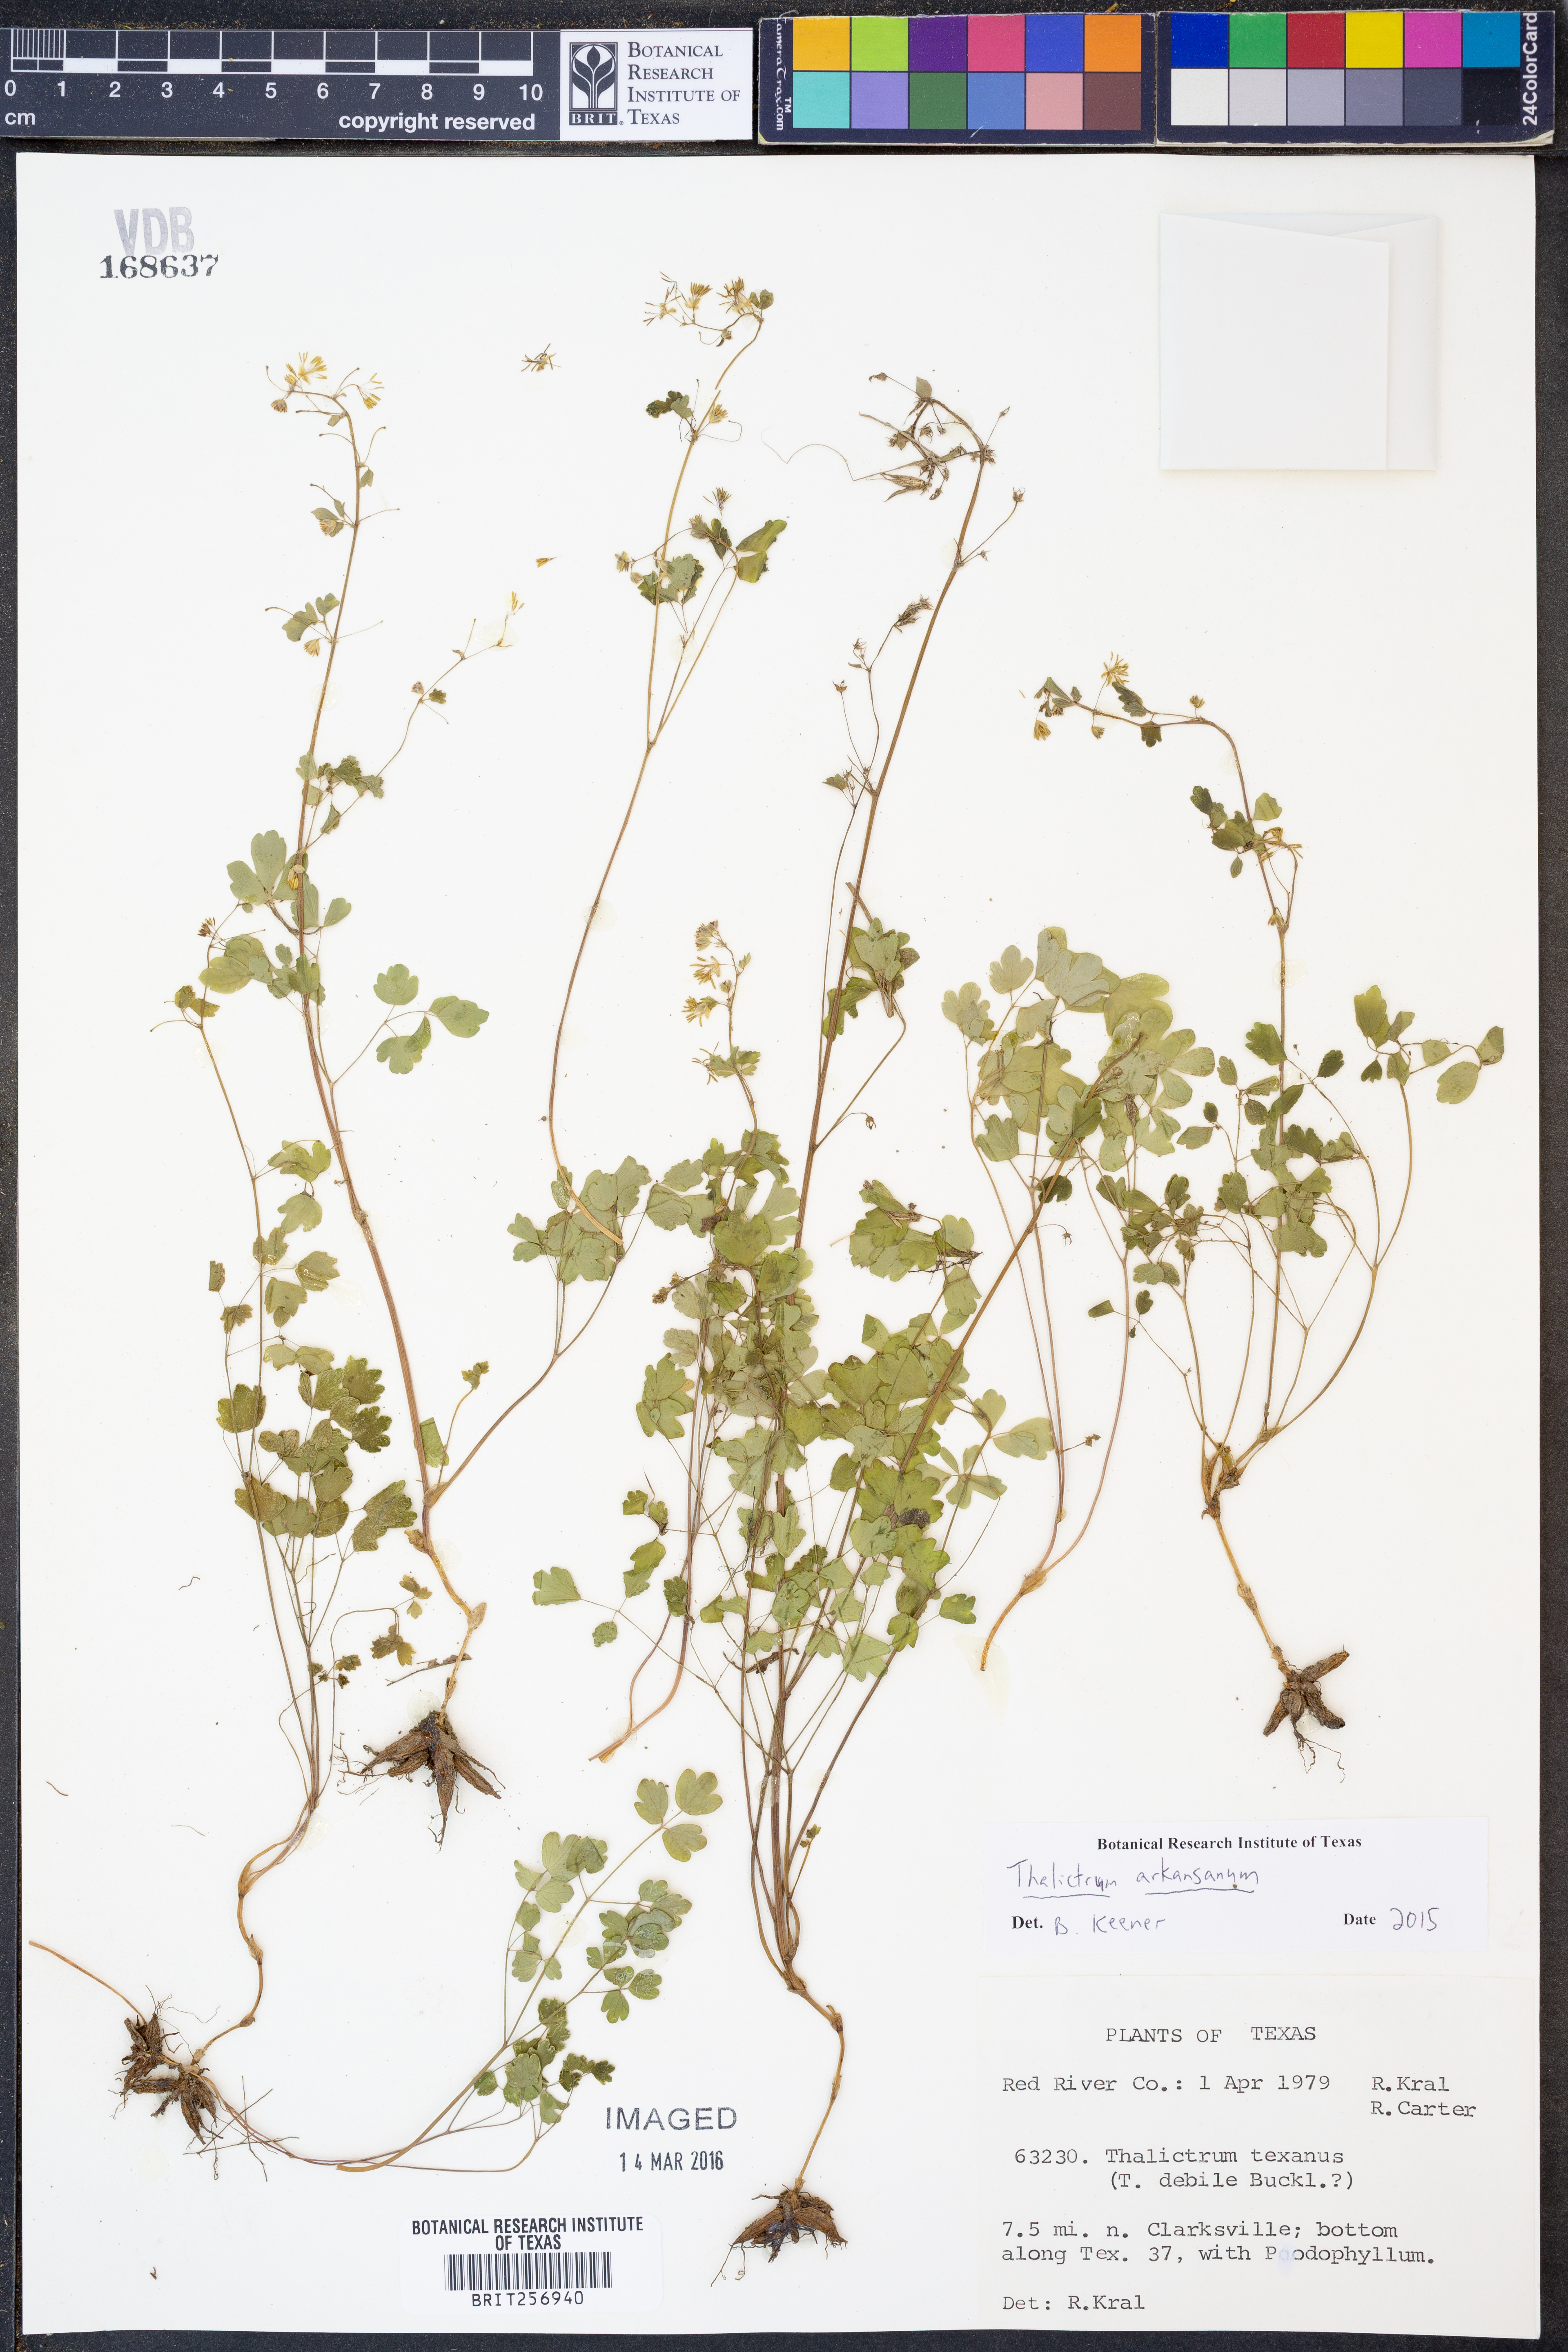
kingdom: Plantae
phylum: Tracheophyta
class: Magnoliopsida
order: Ranunculales
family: Ranunculaceae
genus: Thalictrum
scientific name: Thalictrum arkansanum
